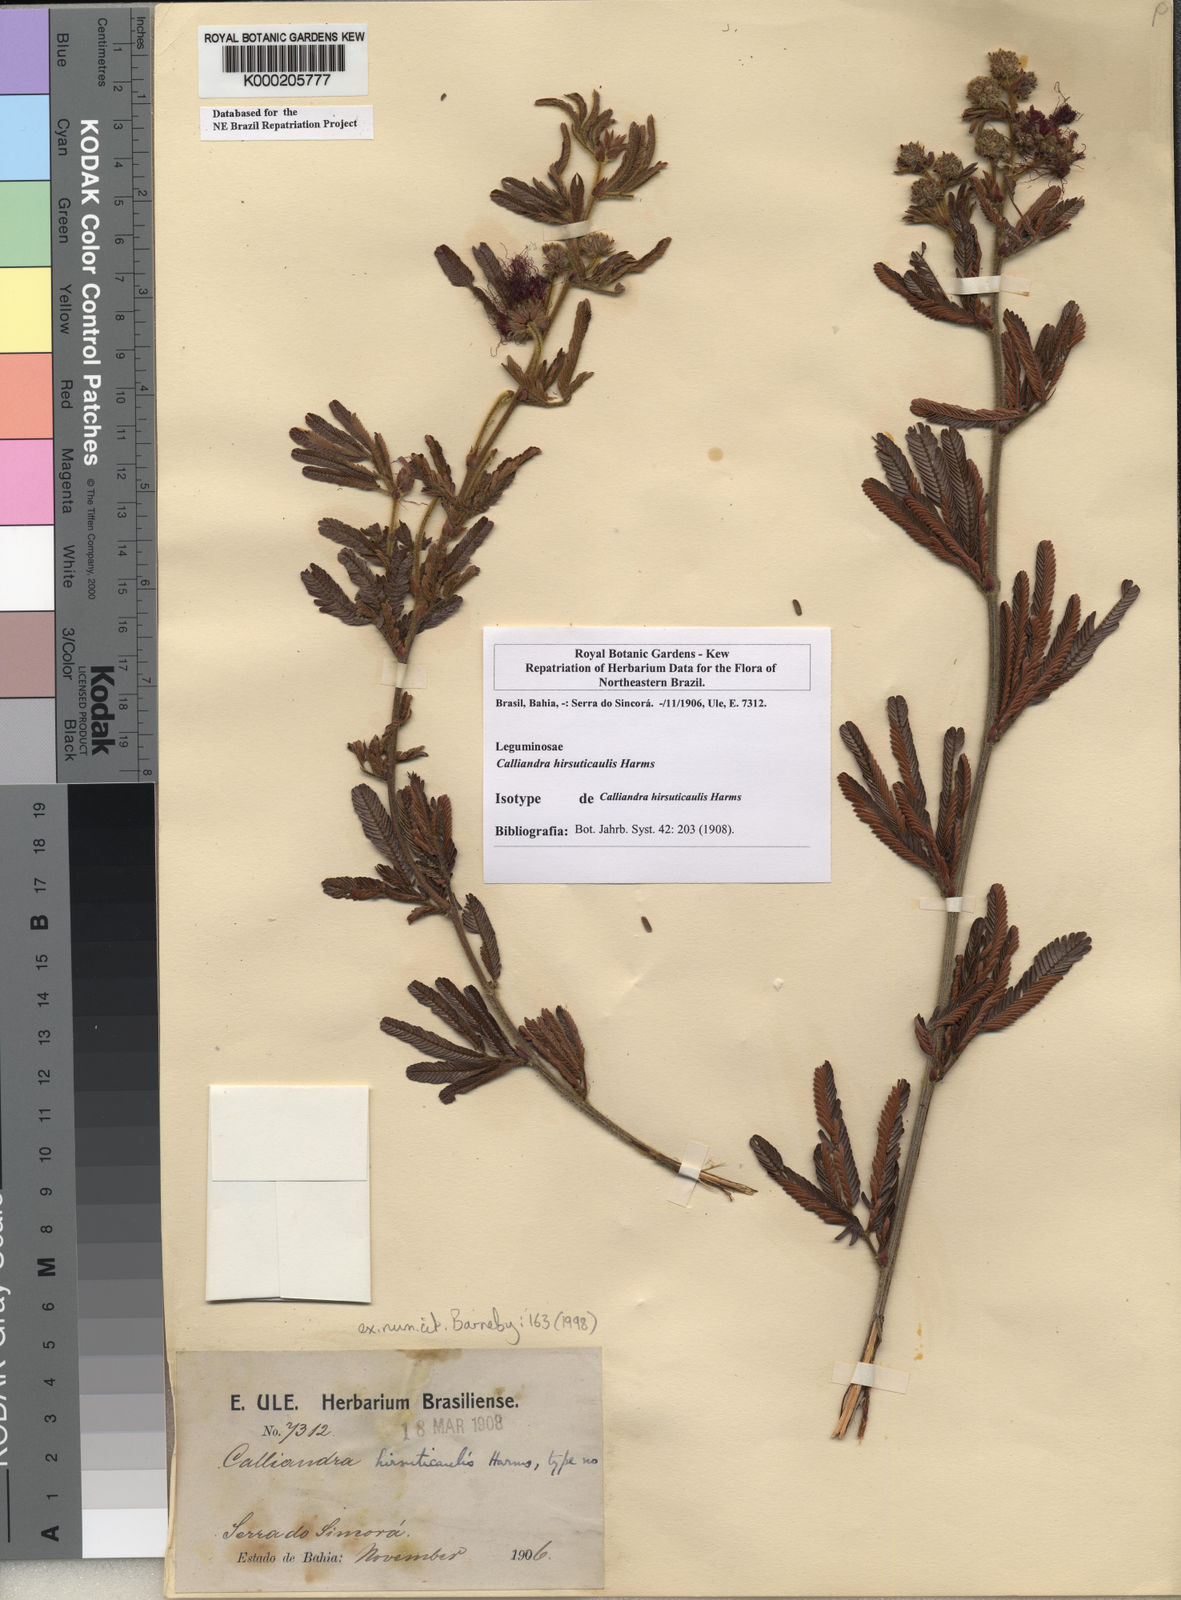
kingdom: Plantae
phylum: Tracheophyta
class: Magnoliopsida
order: Fabales
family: Fabaceae
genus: Calliandra
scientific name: Calliandra hirsuticaulis
